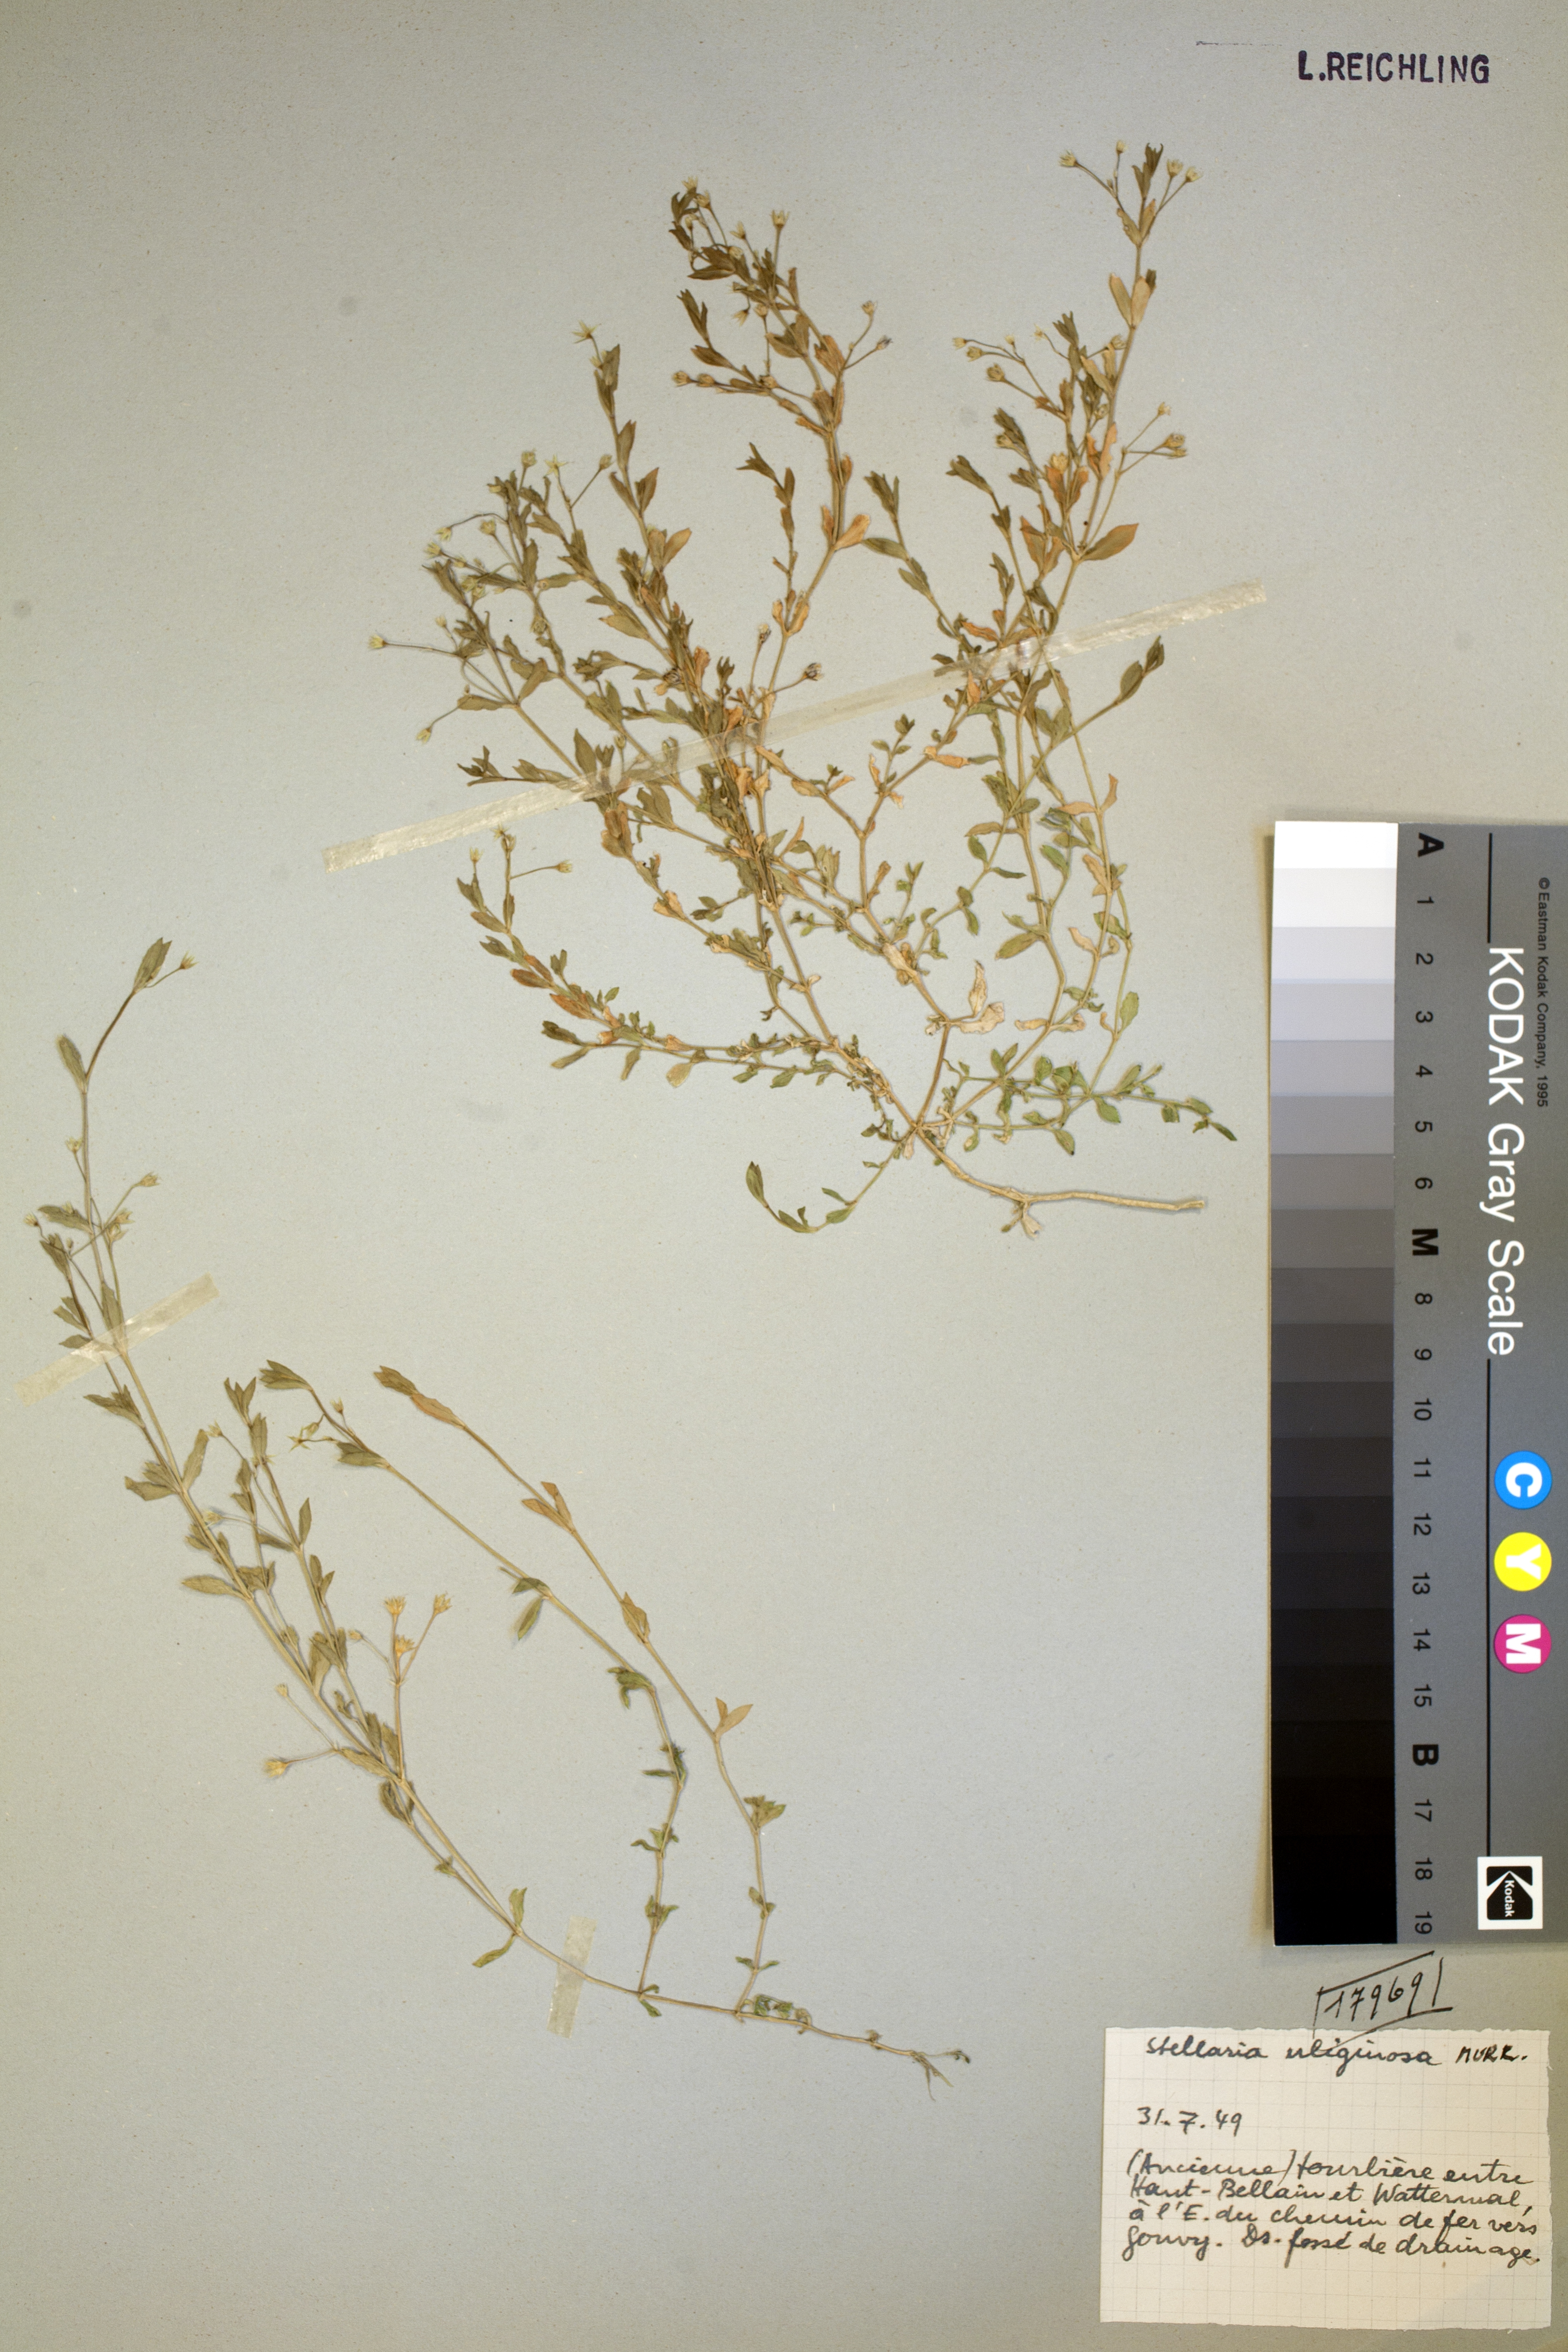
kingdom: Plantae
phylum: Tracheophyta
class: Magnoliopsida
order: Caryophyllales
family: Caryophyllaceae
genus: Stellaria
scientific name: Stellaria alsine
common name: Bog stitchwort
